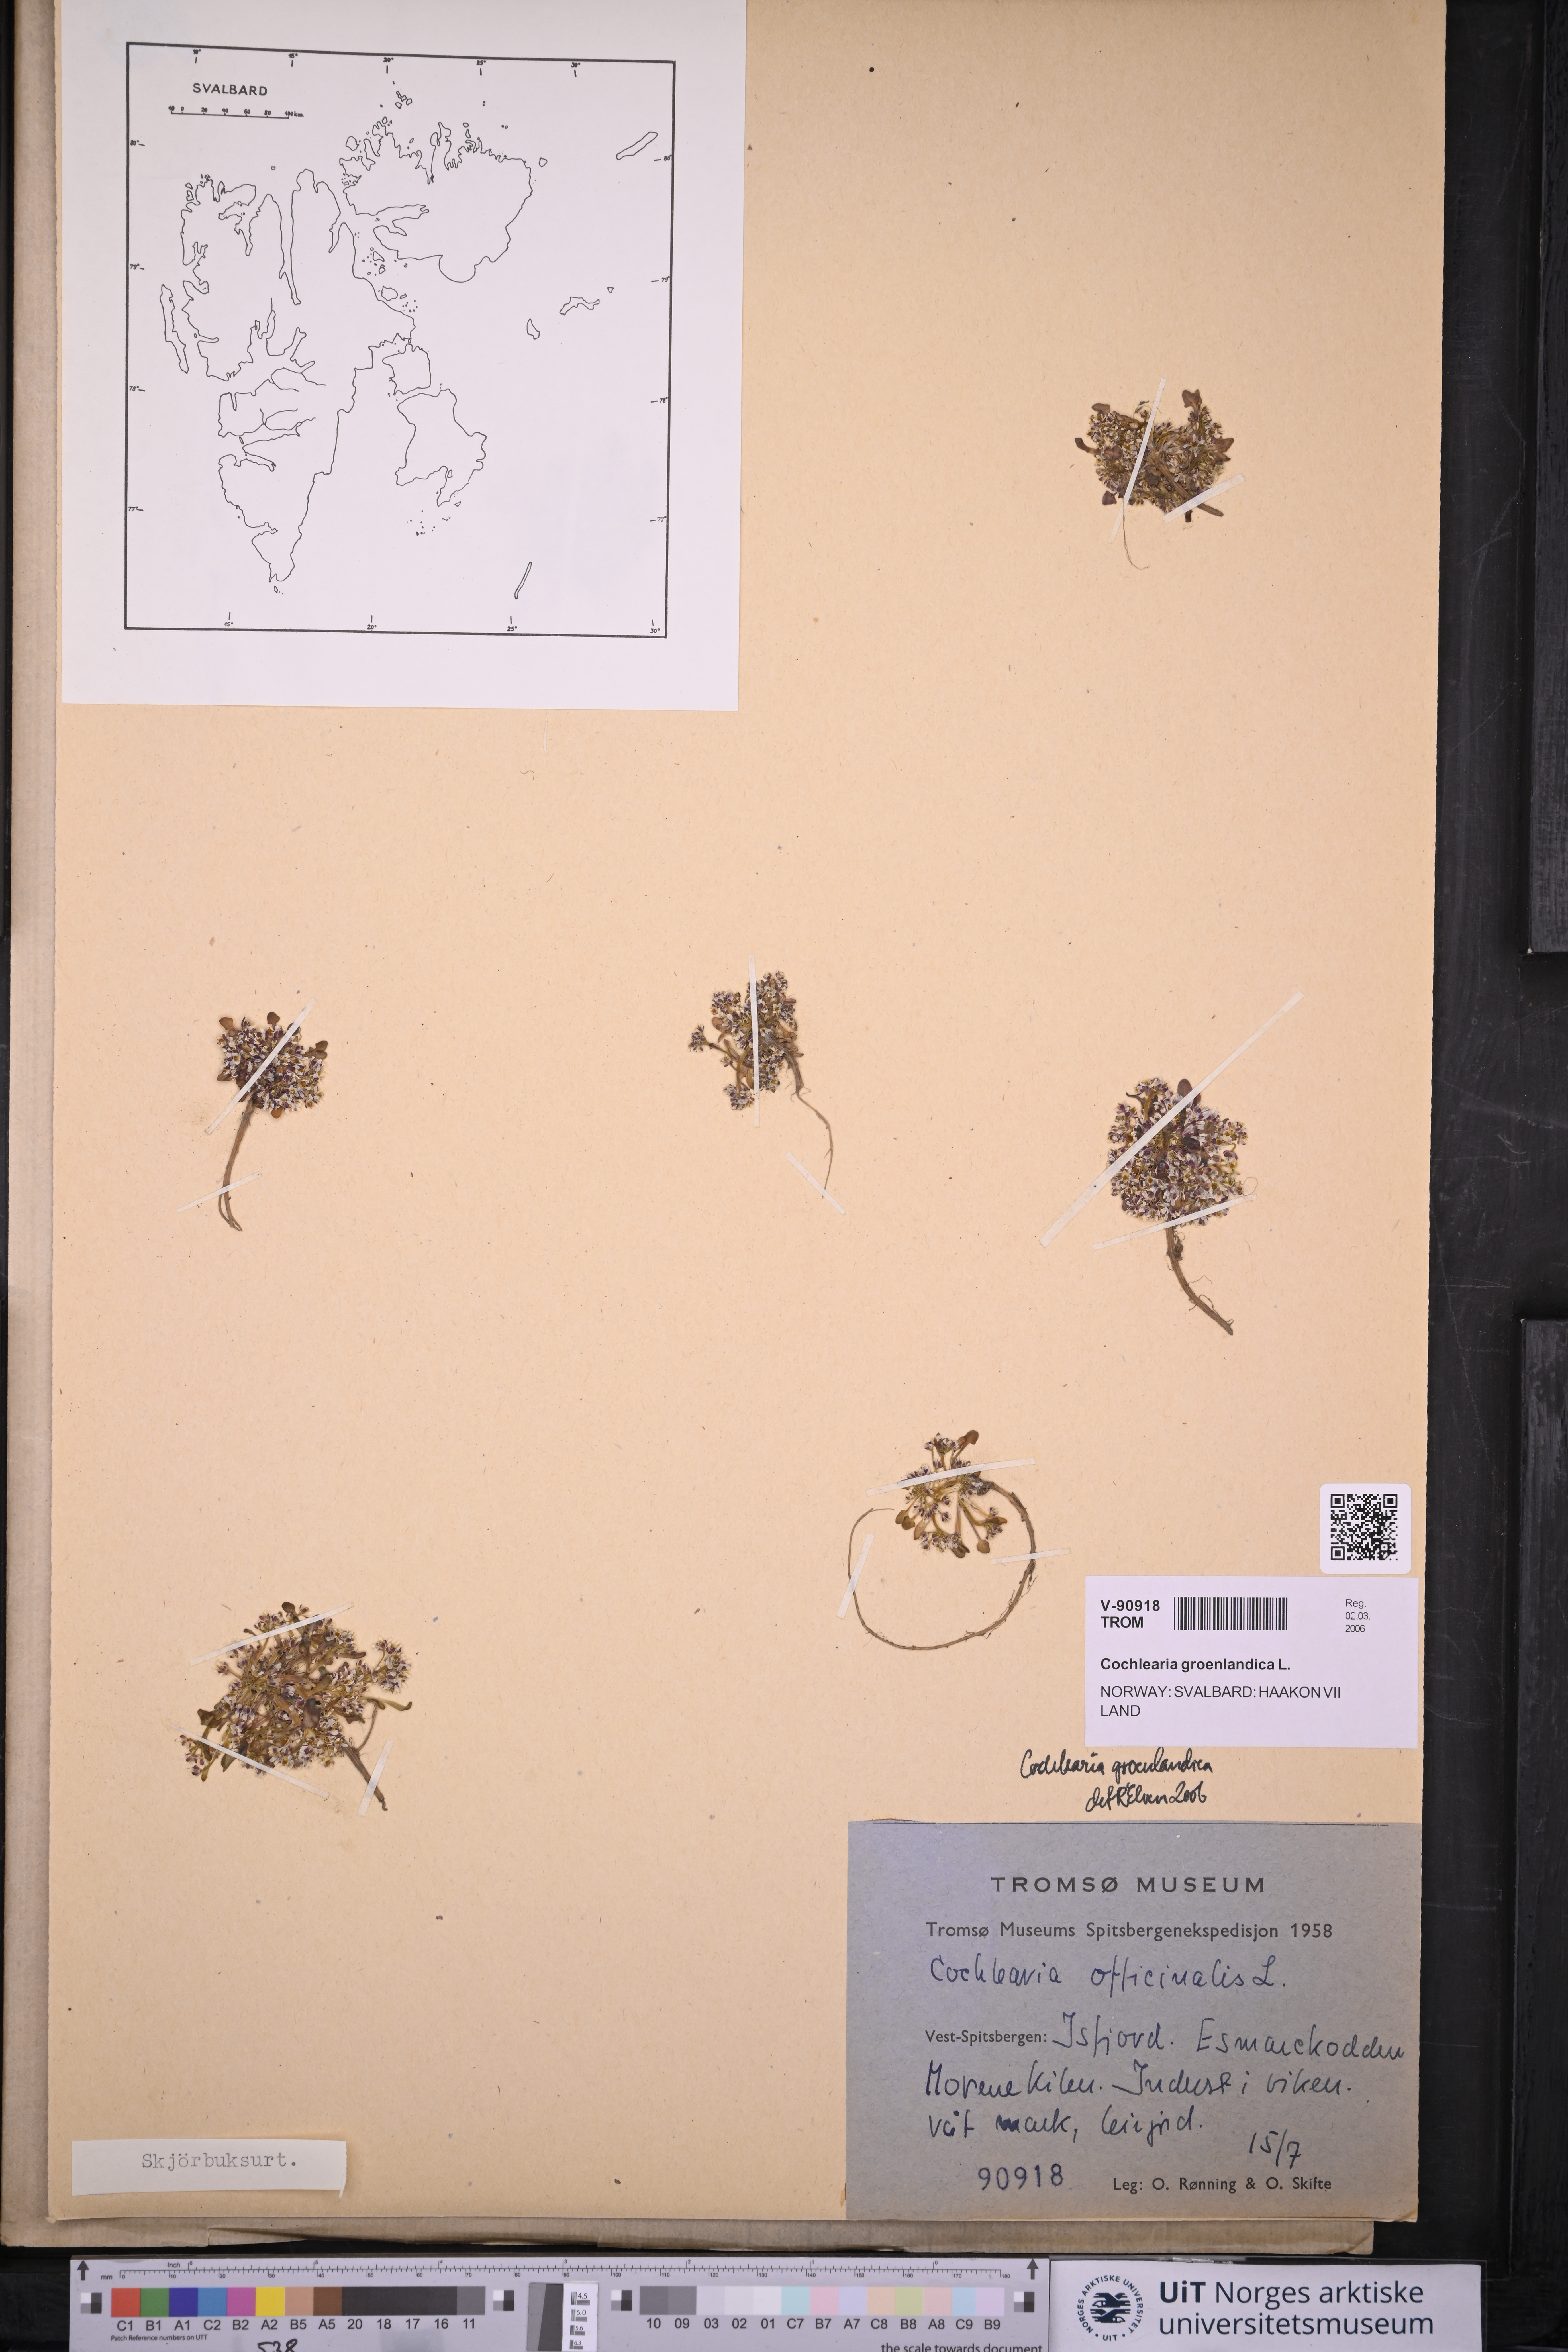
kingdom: Plantae
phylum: Tracheophyta
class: Magnoliopsida
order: Brassicales
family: Brassicaceae
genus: Cochlearia
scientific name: Cochlearia groenlandica
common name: Danish scurvygrass
